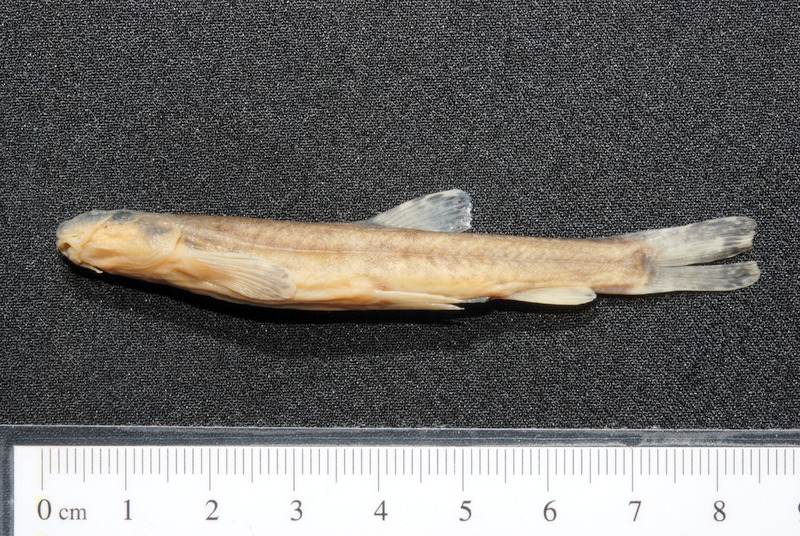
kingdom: Animalia
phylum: Chordata
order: Cypriniformes
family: Nemacheilidae
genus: Barbatula
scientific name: Barbatula barbatula
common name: Stone loach
